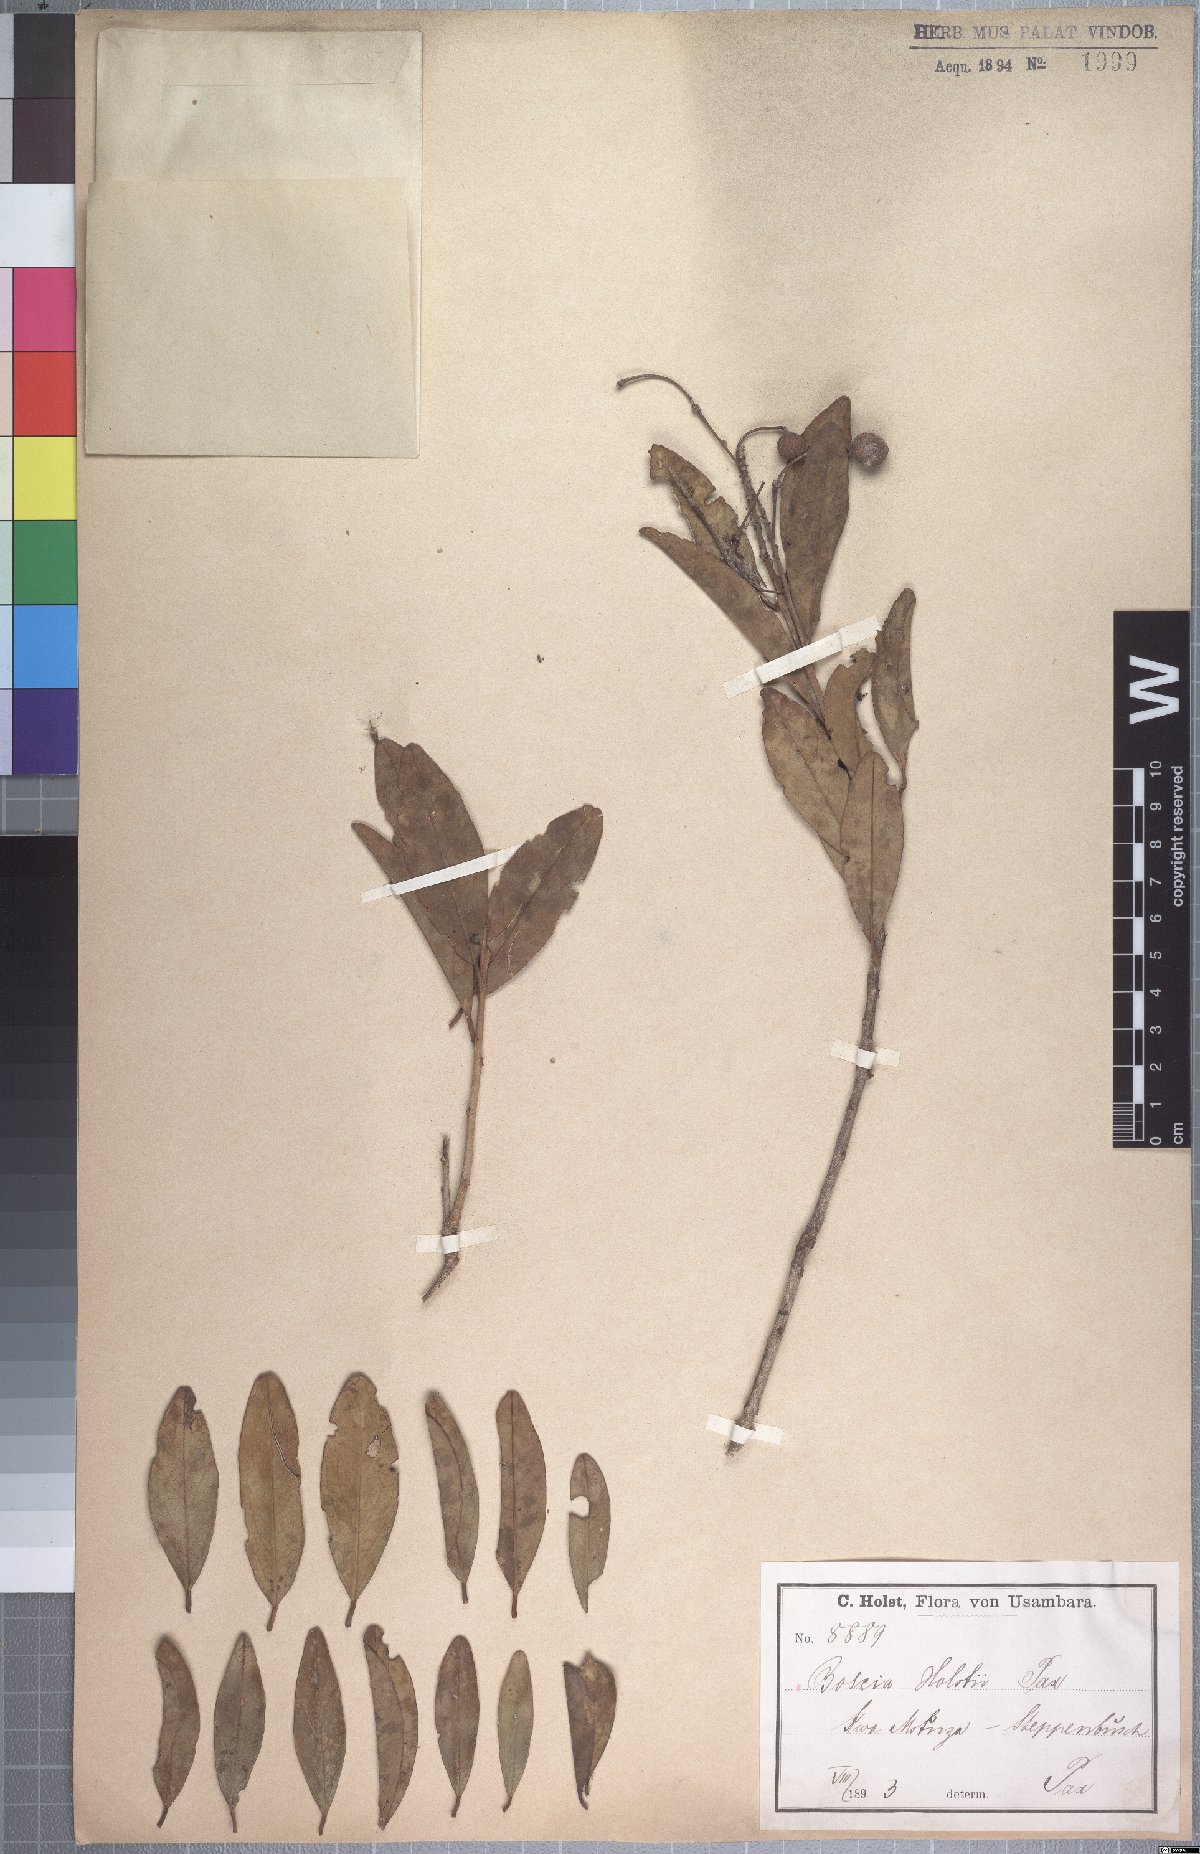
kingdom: Plantae
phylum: Tracheophyta
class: Magnoliopsida
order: Brassicales
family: Capparaceae
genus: Maerua
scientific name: Maerua triphylla
